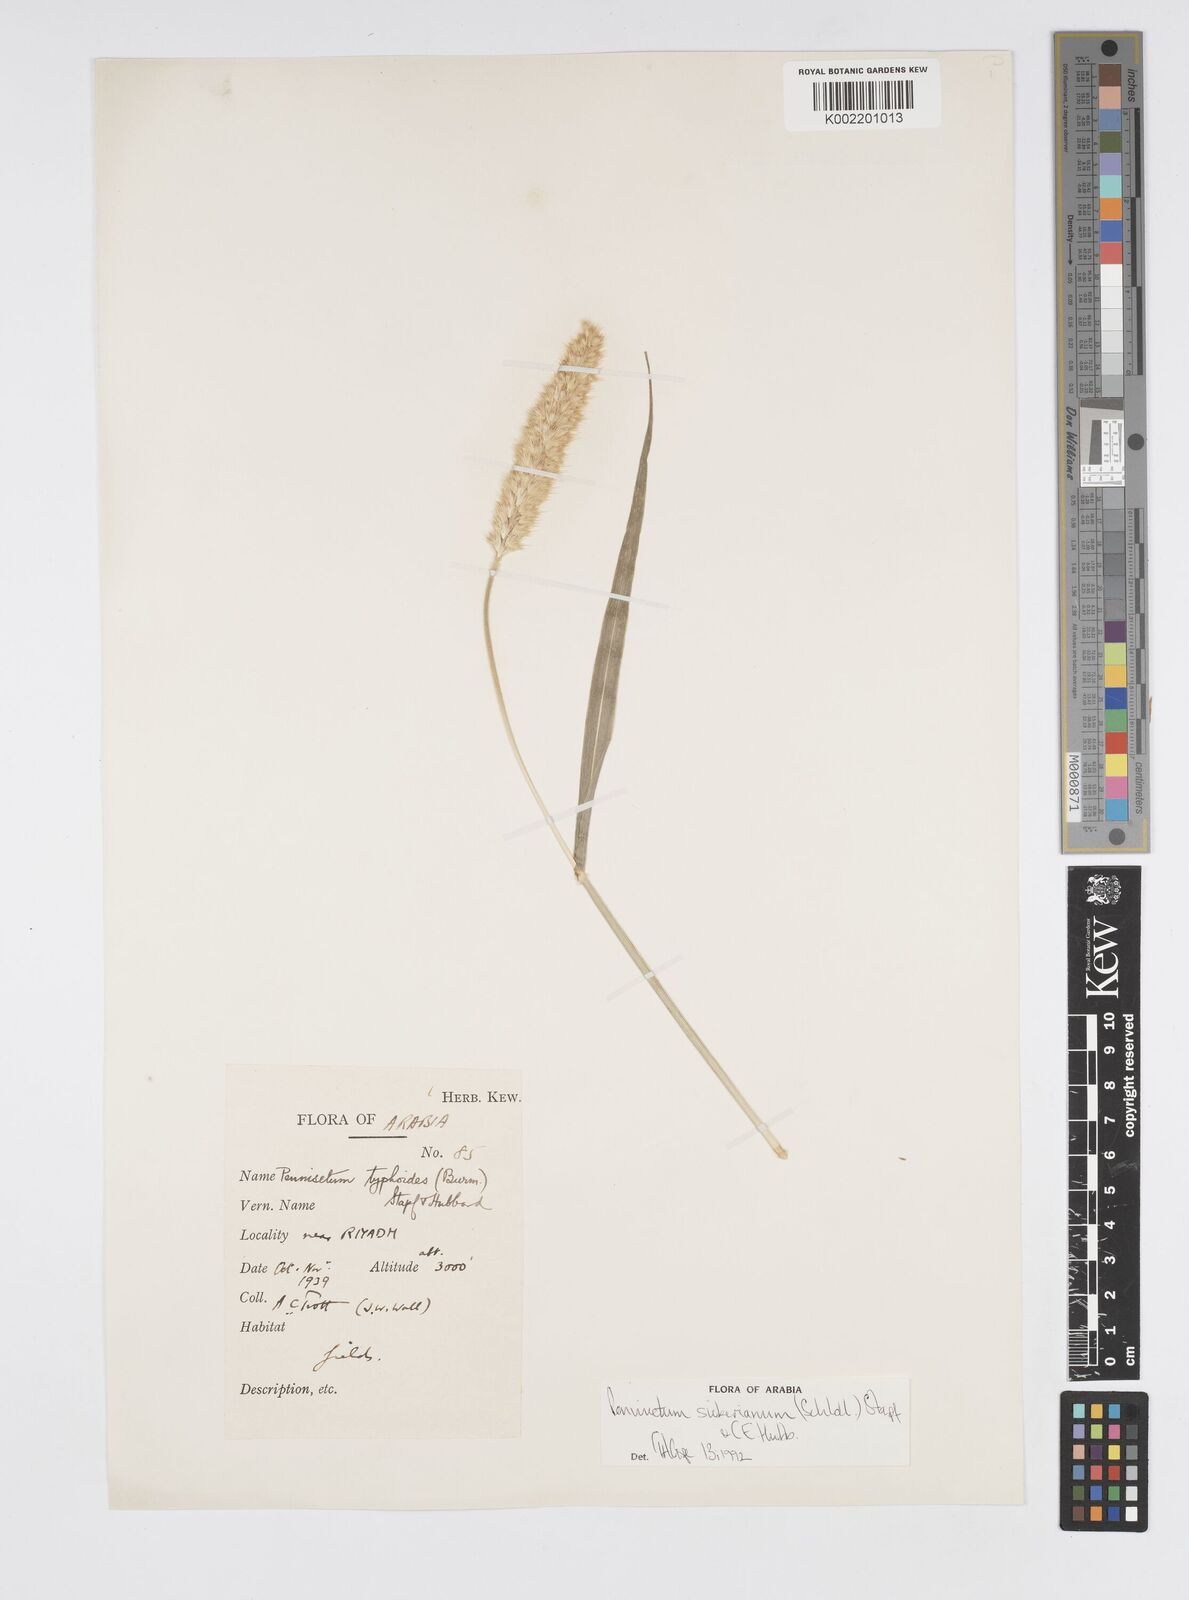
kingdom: Plantae
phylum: Tracheophyta
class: Liliopsida
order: Poales
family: Poaceae
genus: Cenchrus
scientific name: Cenchrus sieberianus
